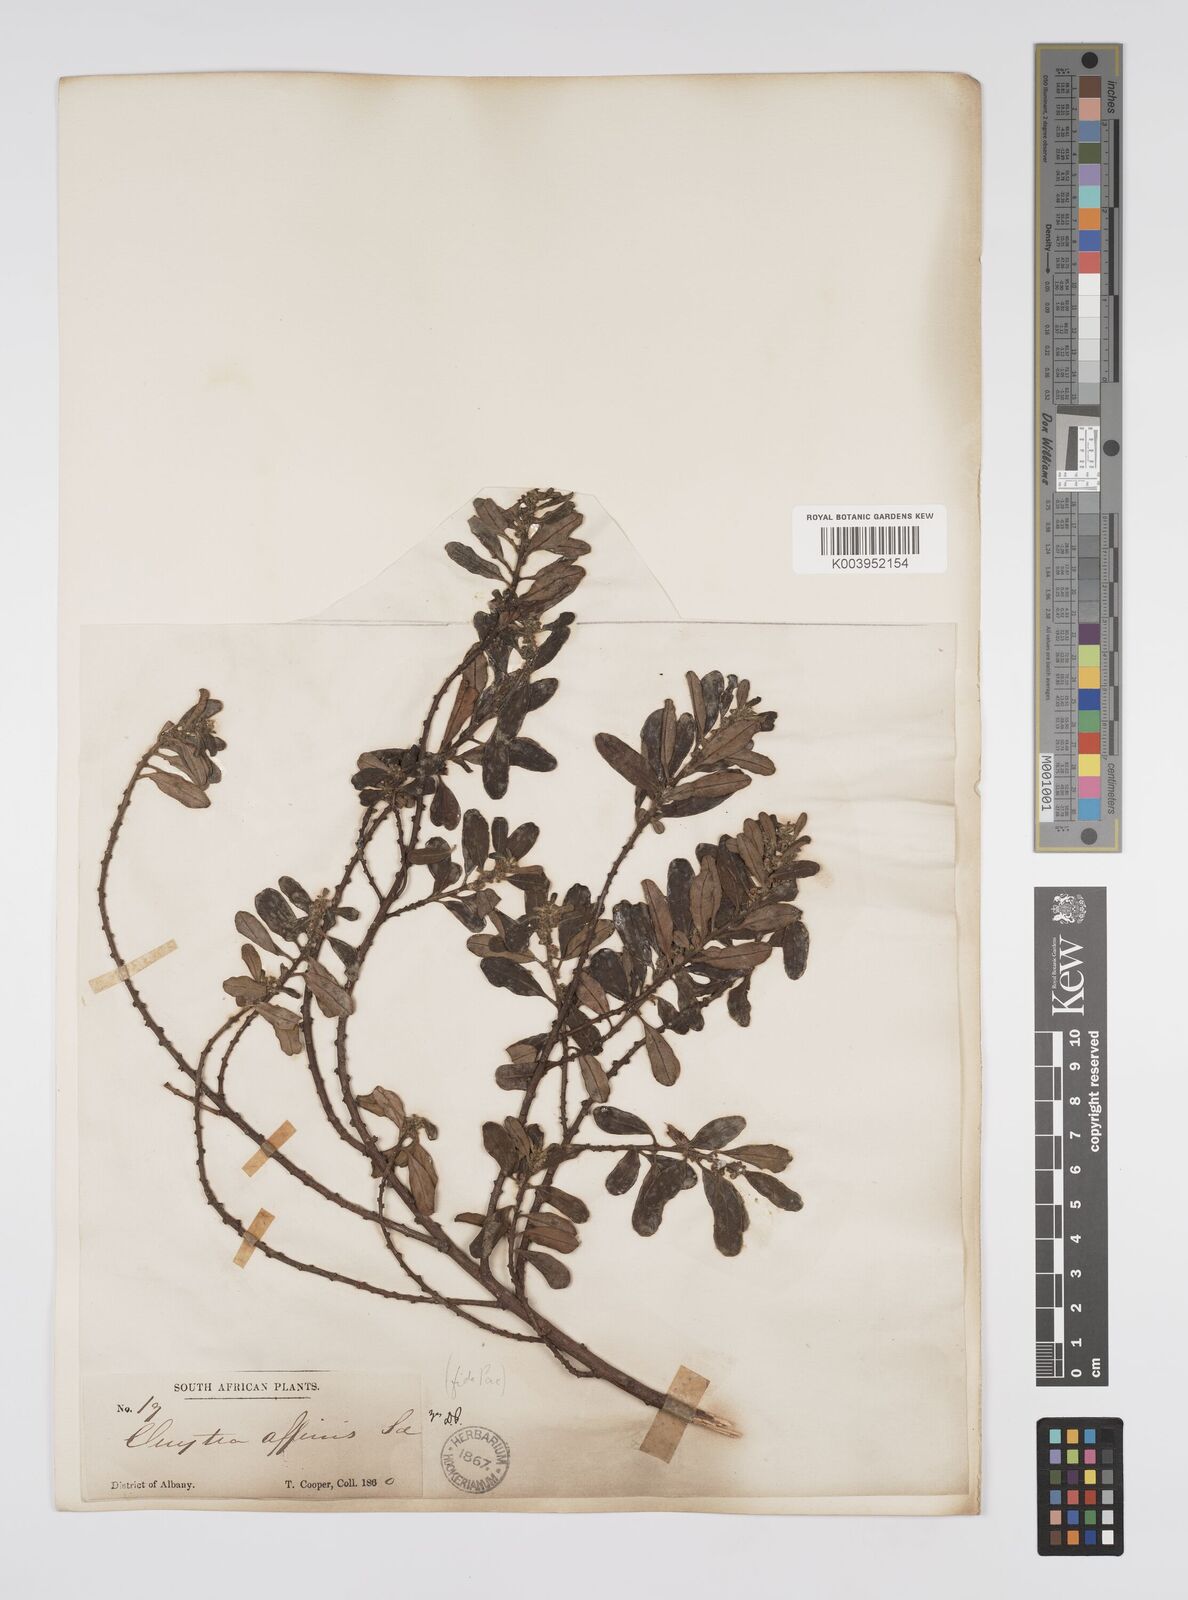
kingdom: Plantae
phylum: Tracheophyta
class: Magnoliopsida
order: Malpighiales
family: Peraceae
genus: Clutia
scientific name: Clutia affinis
